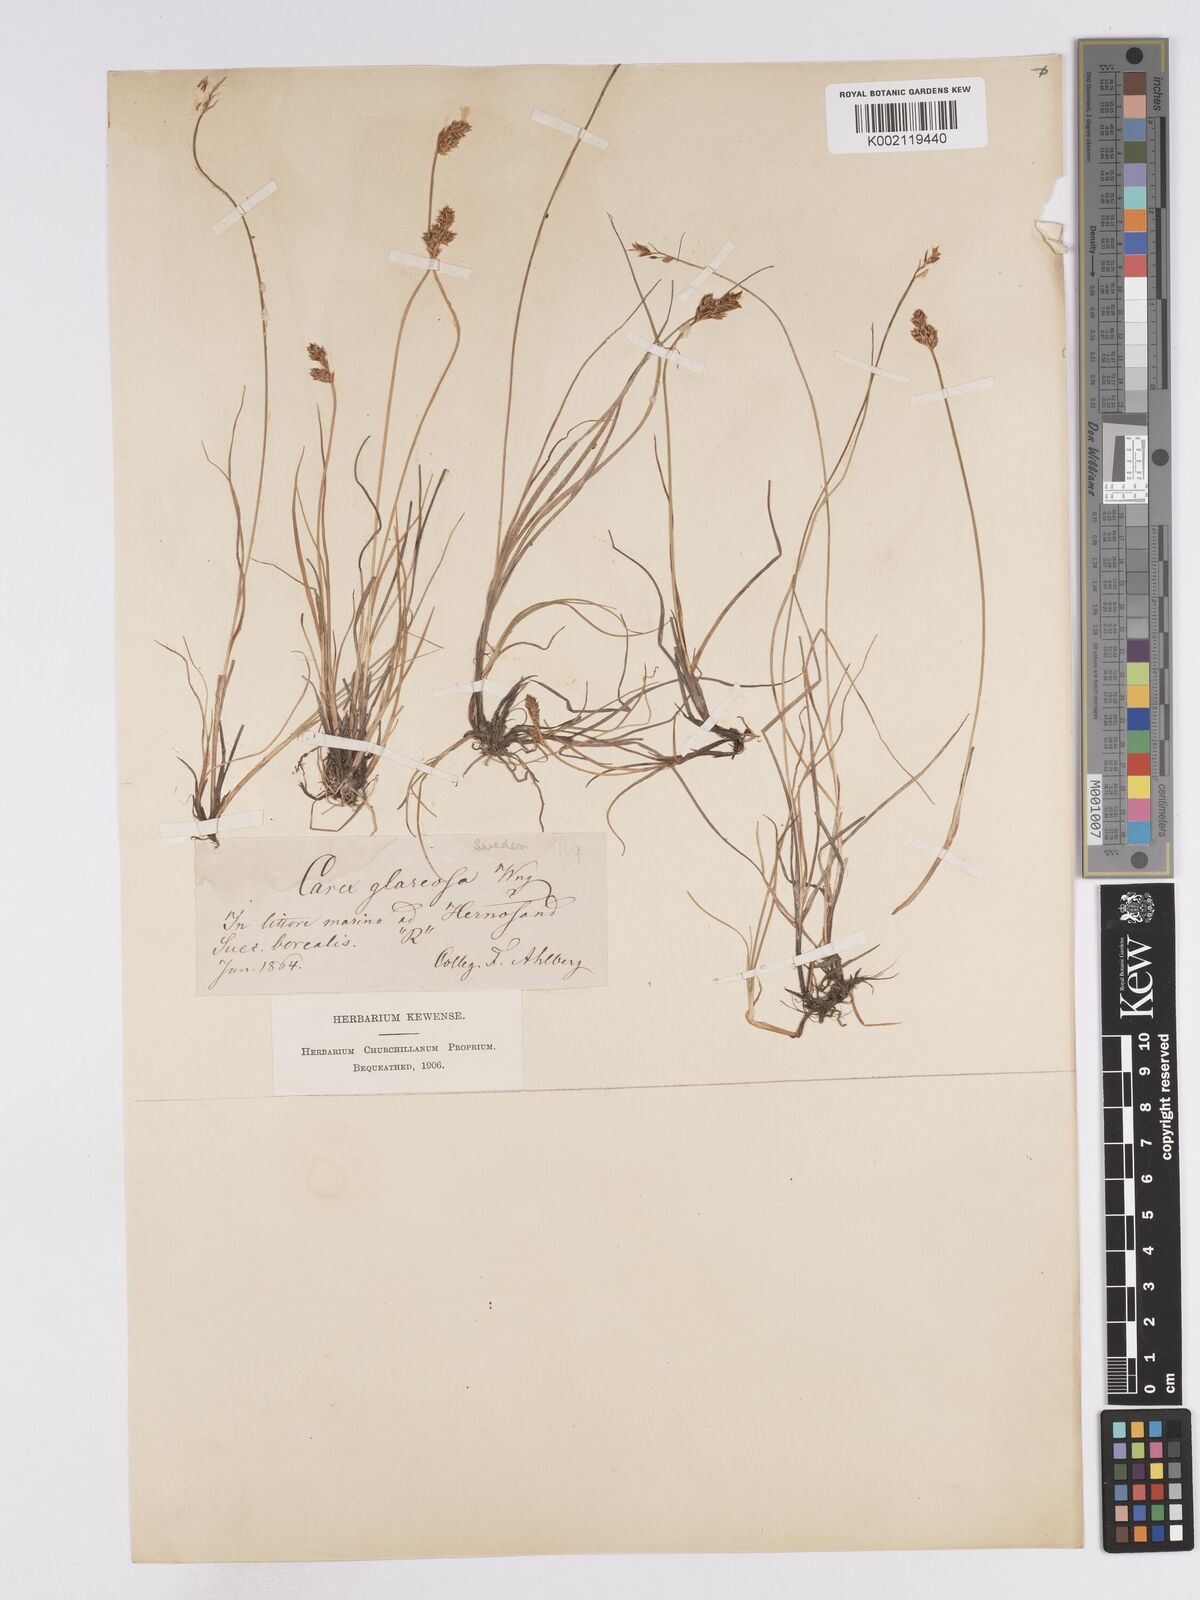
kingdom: Plantae
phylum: Tracheophyta
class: Liliopsida
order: Poales
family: Cyperaceae
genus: Carex
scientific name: Carex glareosa
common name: Clustered sedge
